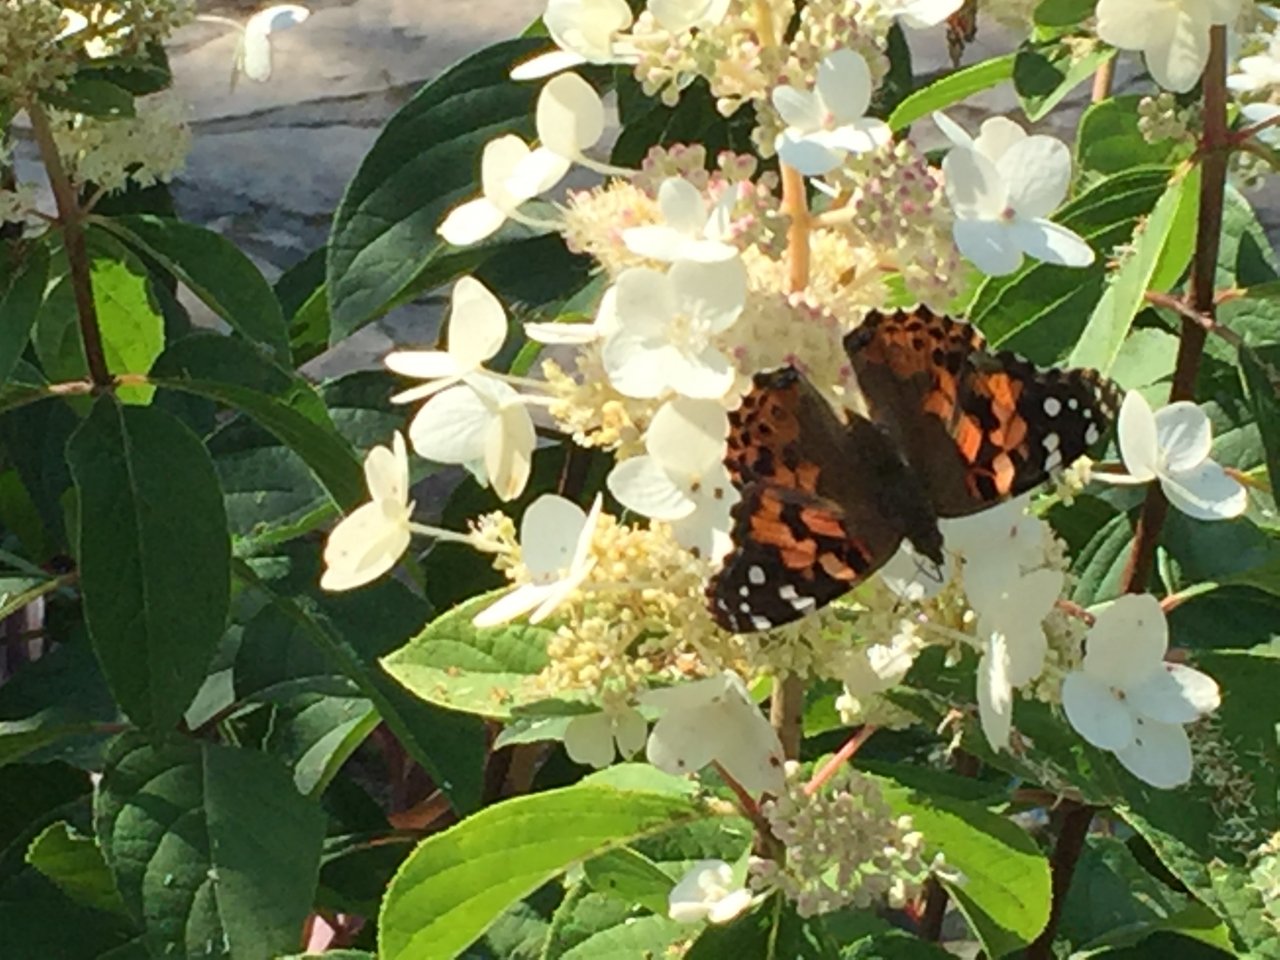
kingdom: Animalia
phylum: Arthropoda
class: Insecta
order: Lepidoptera
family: Nymphalidae
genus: Vanessa
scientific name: Vanessa cardui
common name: Painted Lady
